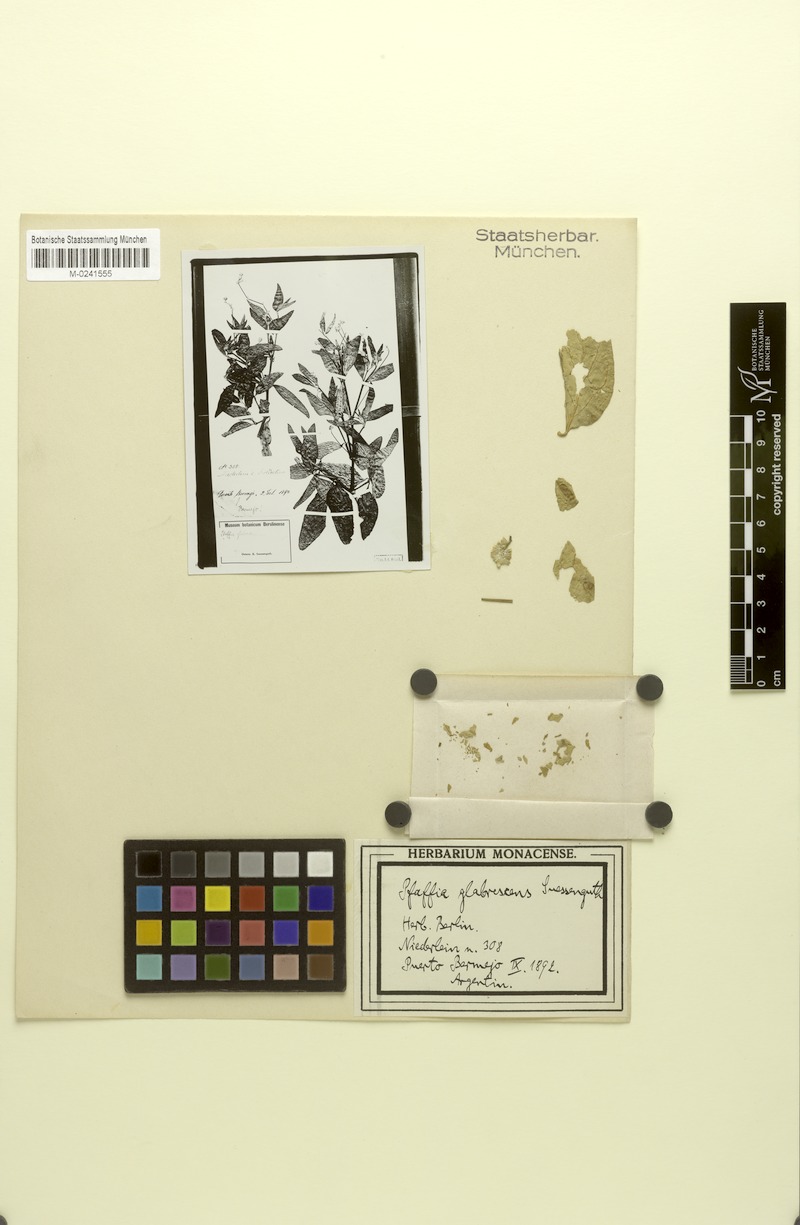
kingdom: Plantae
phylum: Tracheophyta
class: Magnoliopsida
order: Caryophyllales
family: Amaranthaceae
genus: Pfaffia
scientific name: Pfaffia glomerata
